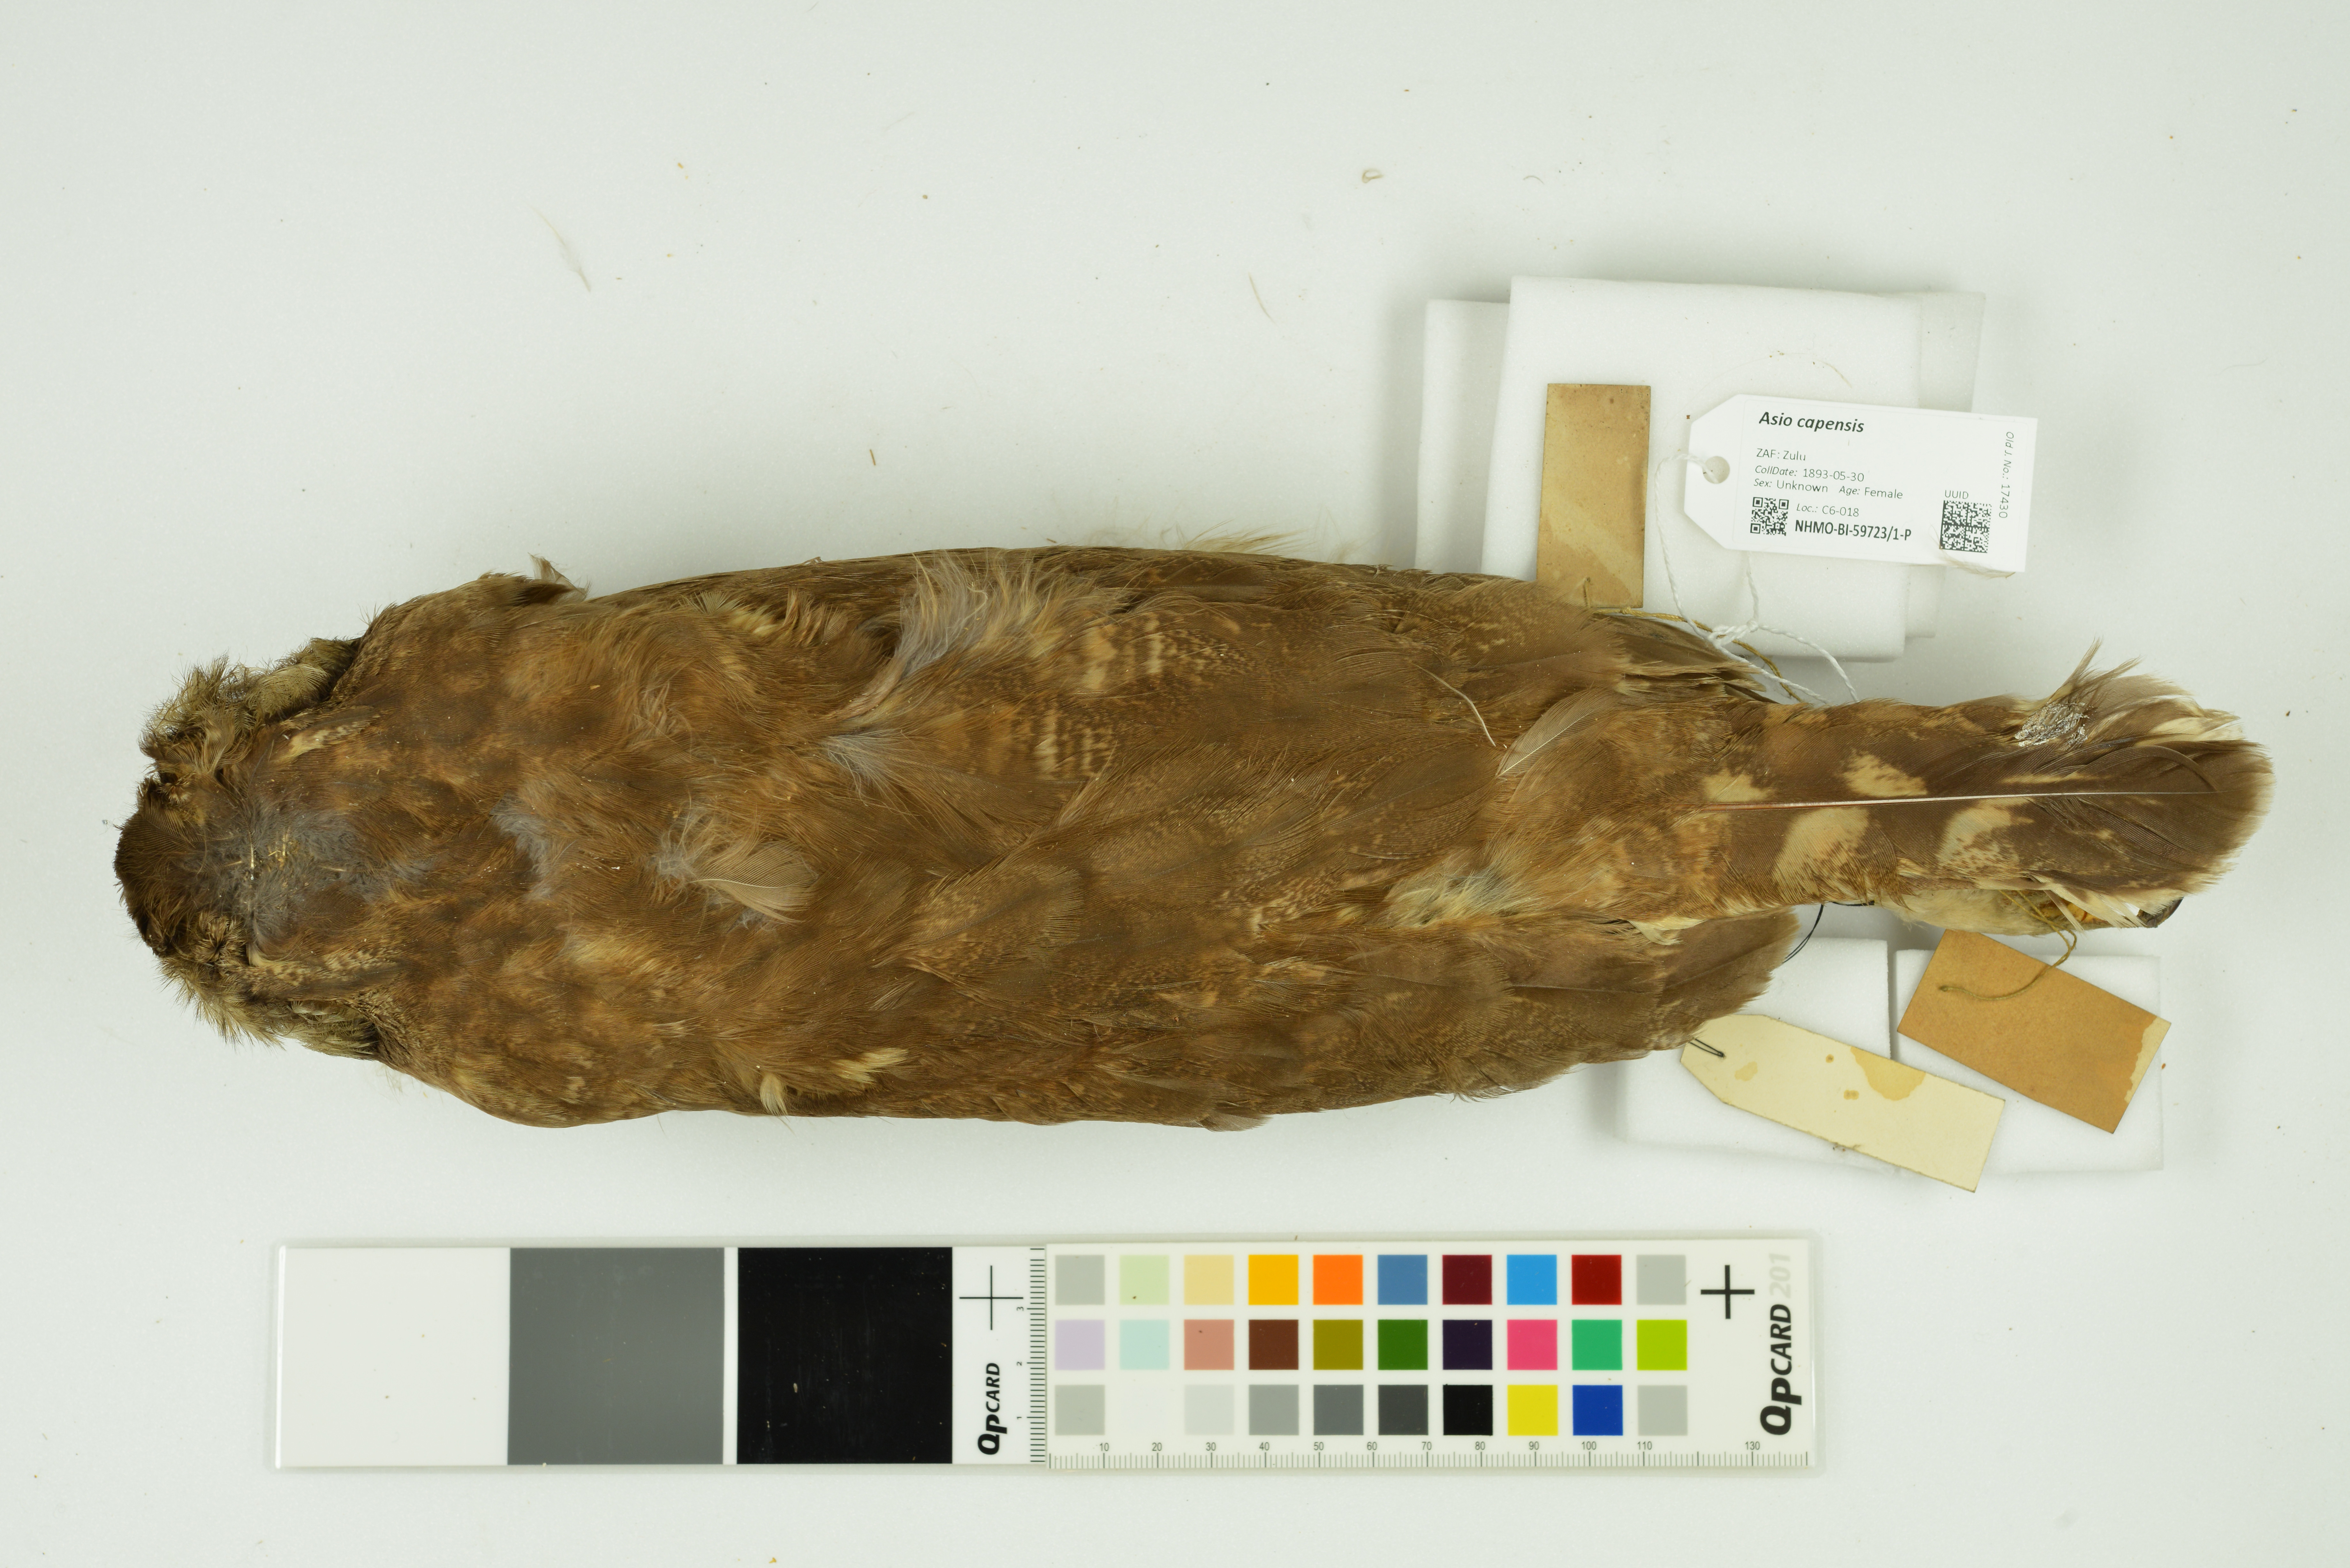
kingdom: Animalia
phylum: Chordata
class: Aves
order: Strigiformes
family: Strigidae
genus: Asio
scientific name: Asio capensis
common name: Marsh owl
